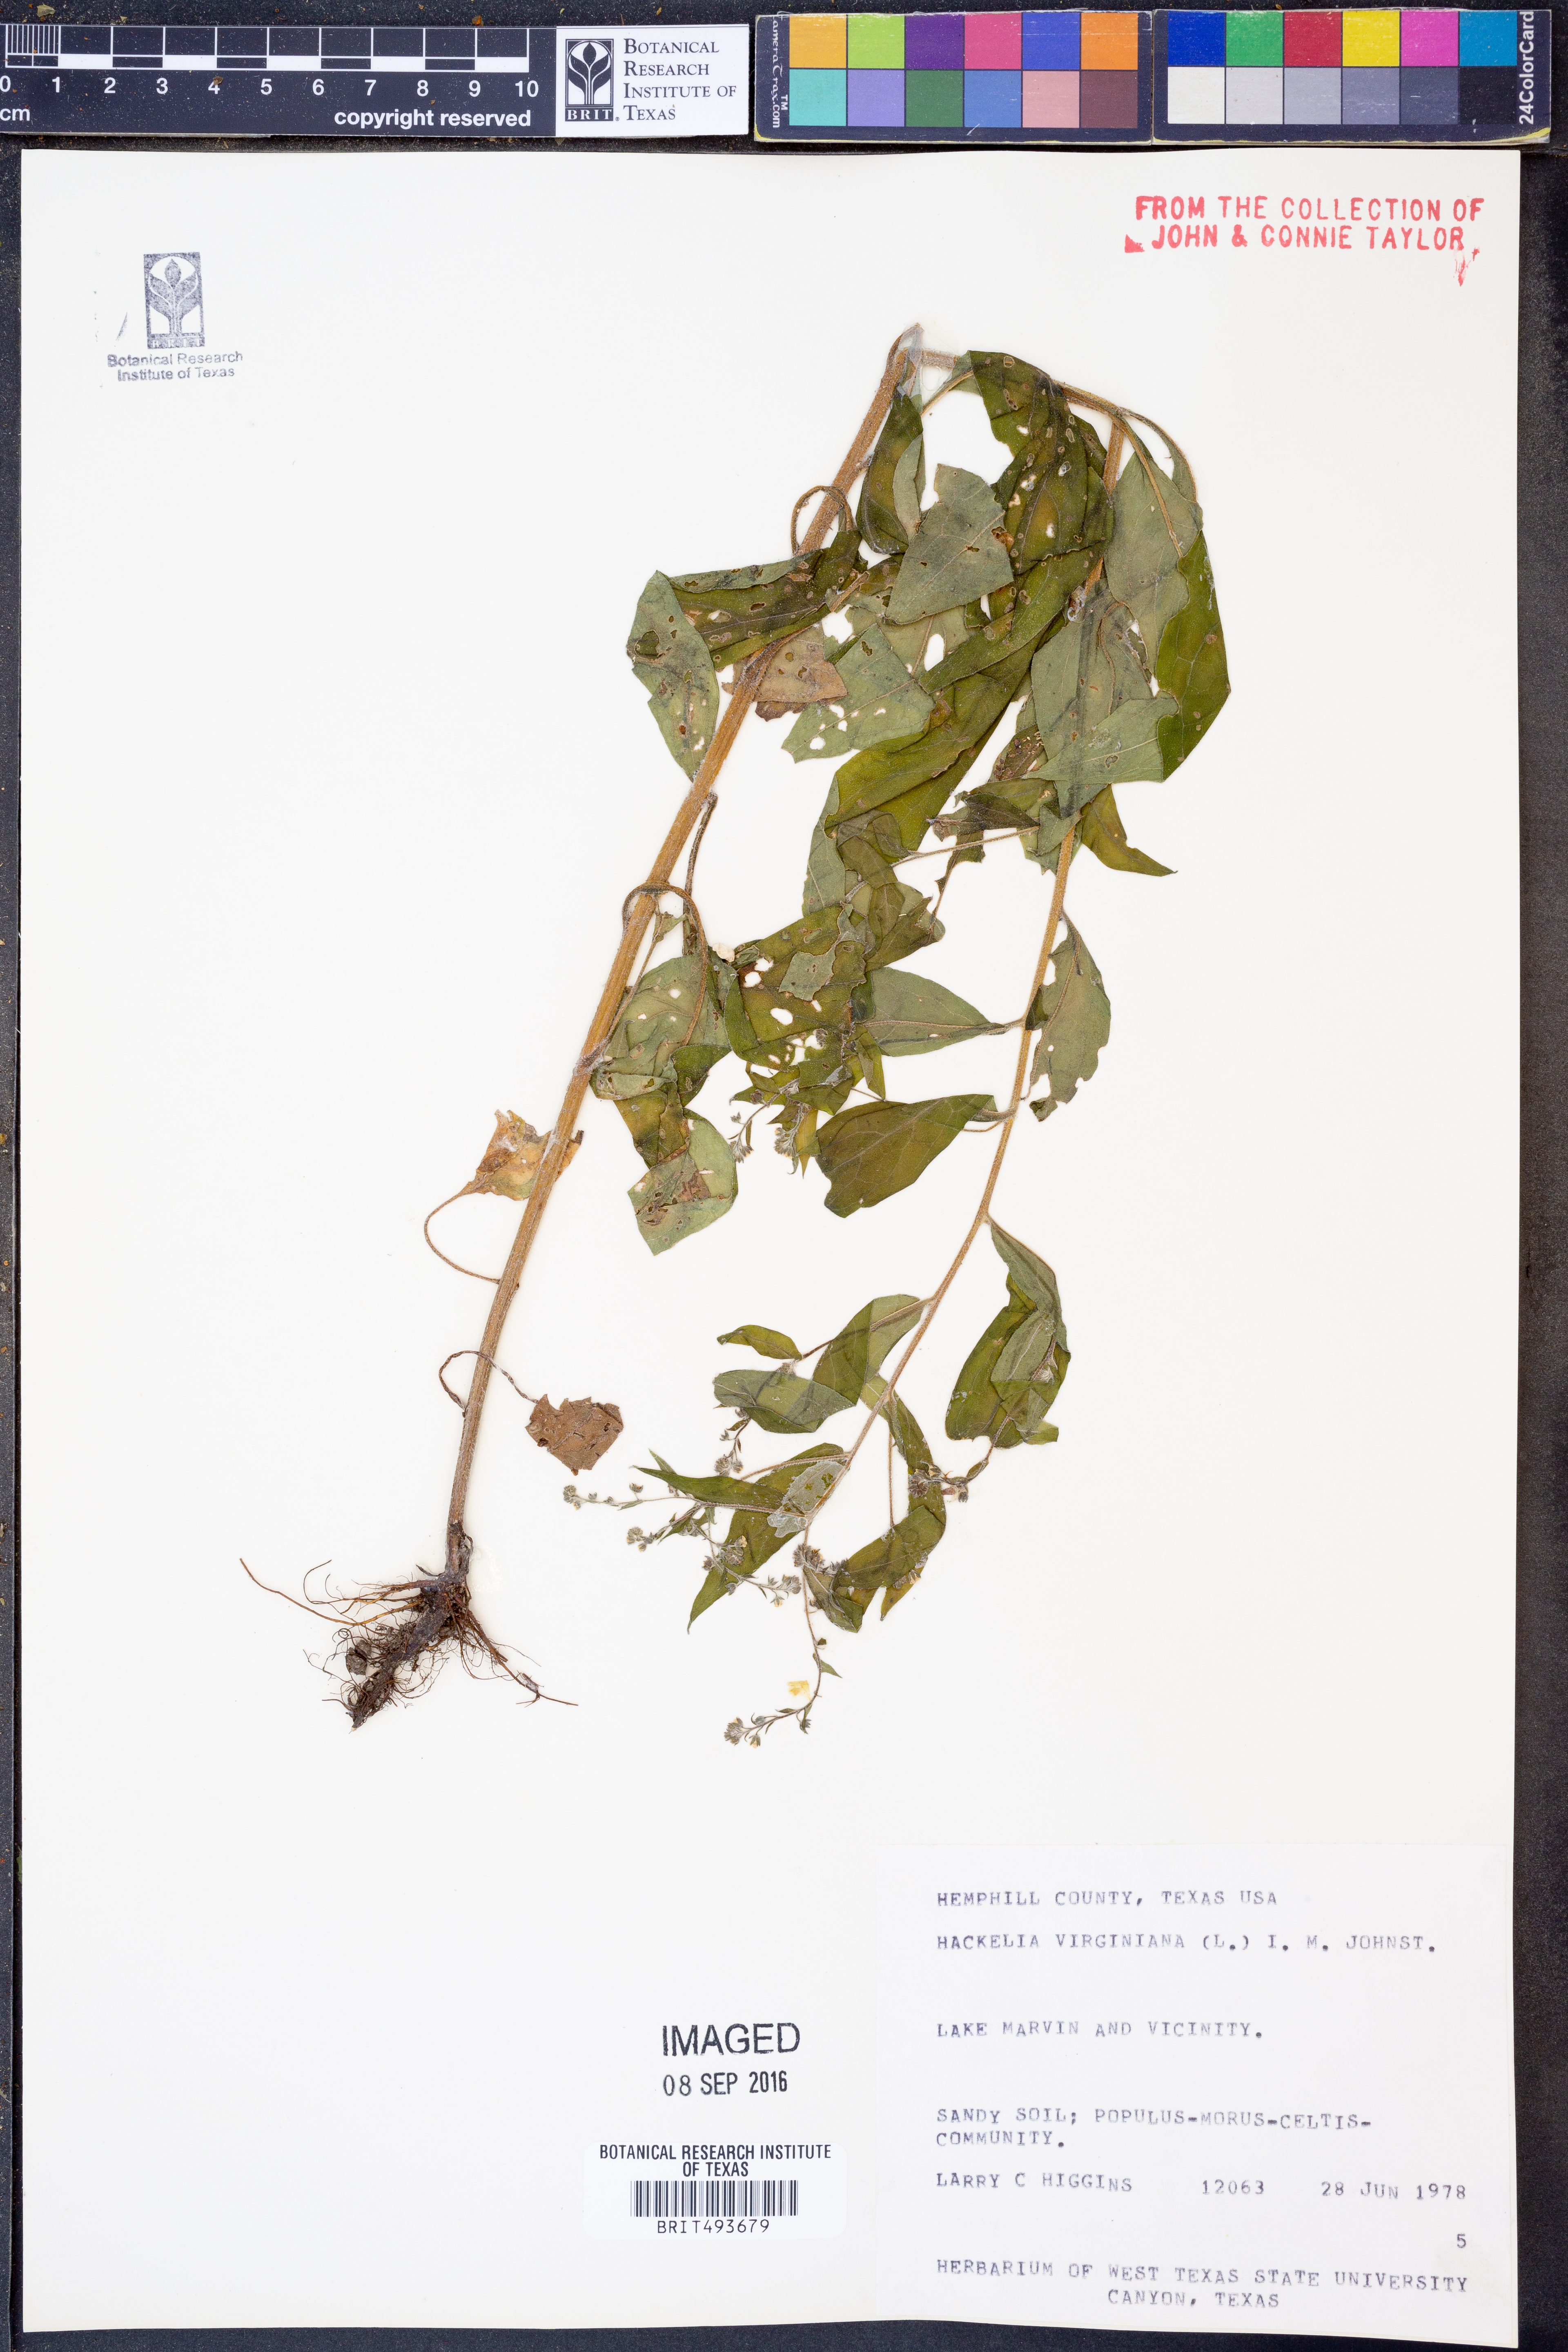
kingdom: Plantae
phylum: Tracheophyta
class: Magnoliopsida
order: Boraginales
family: Boraginaceae
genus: Hackelia
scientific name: Hackelia virginiana
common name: Beggar's-lice
